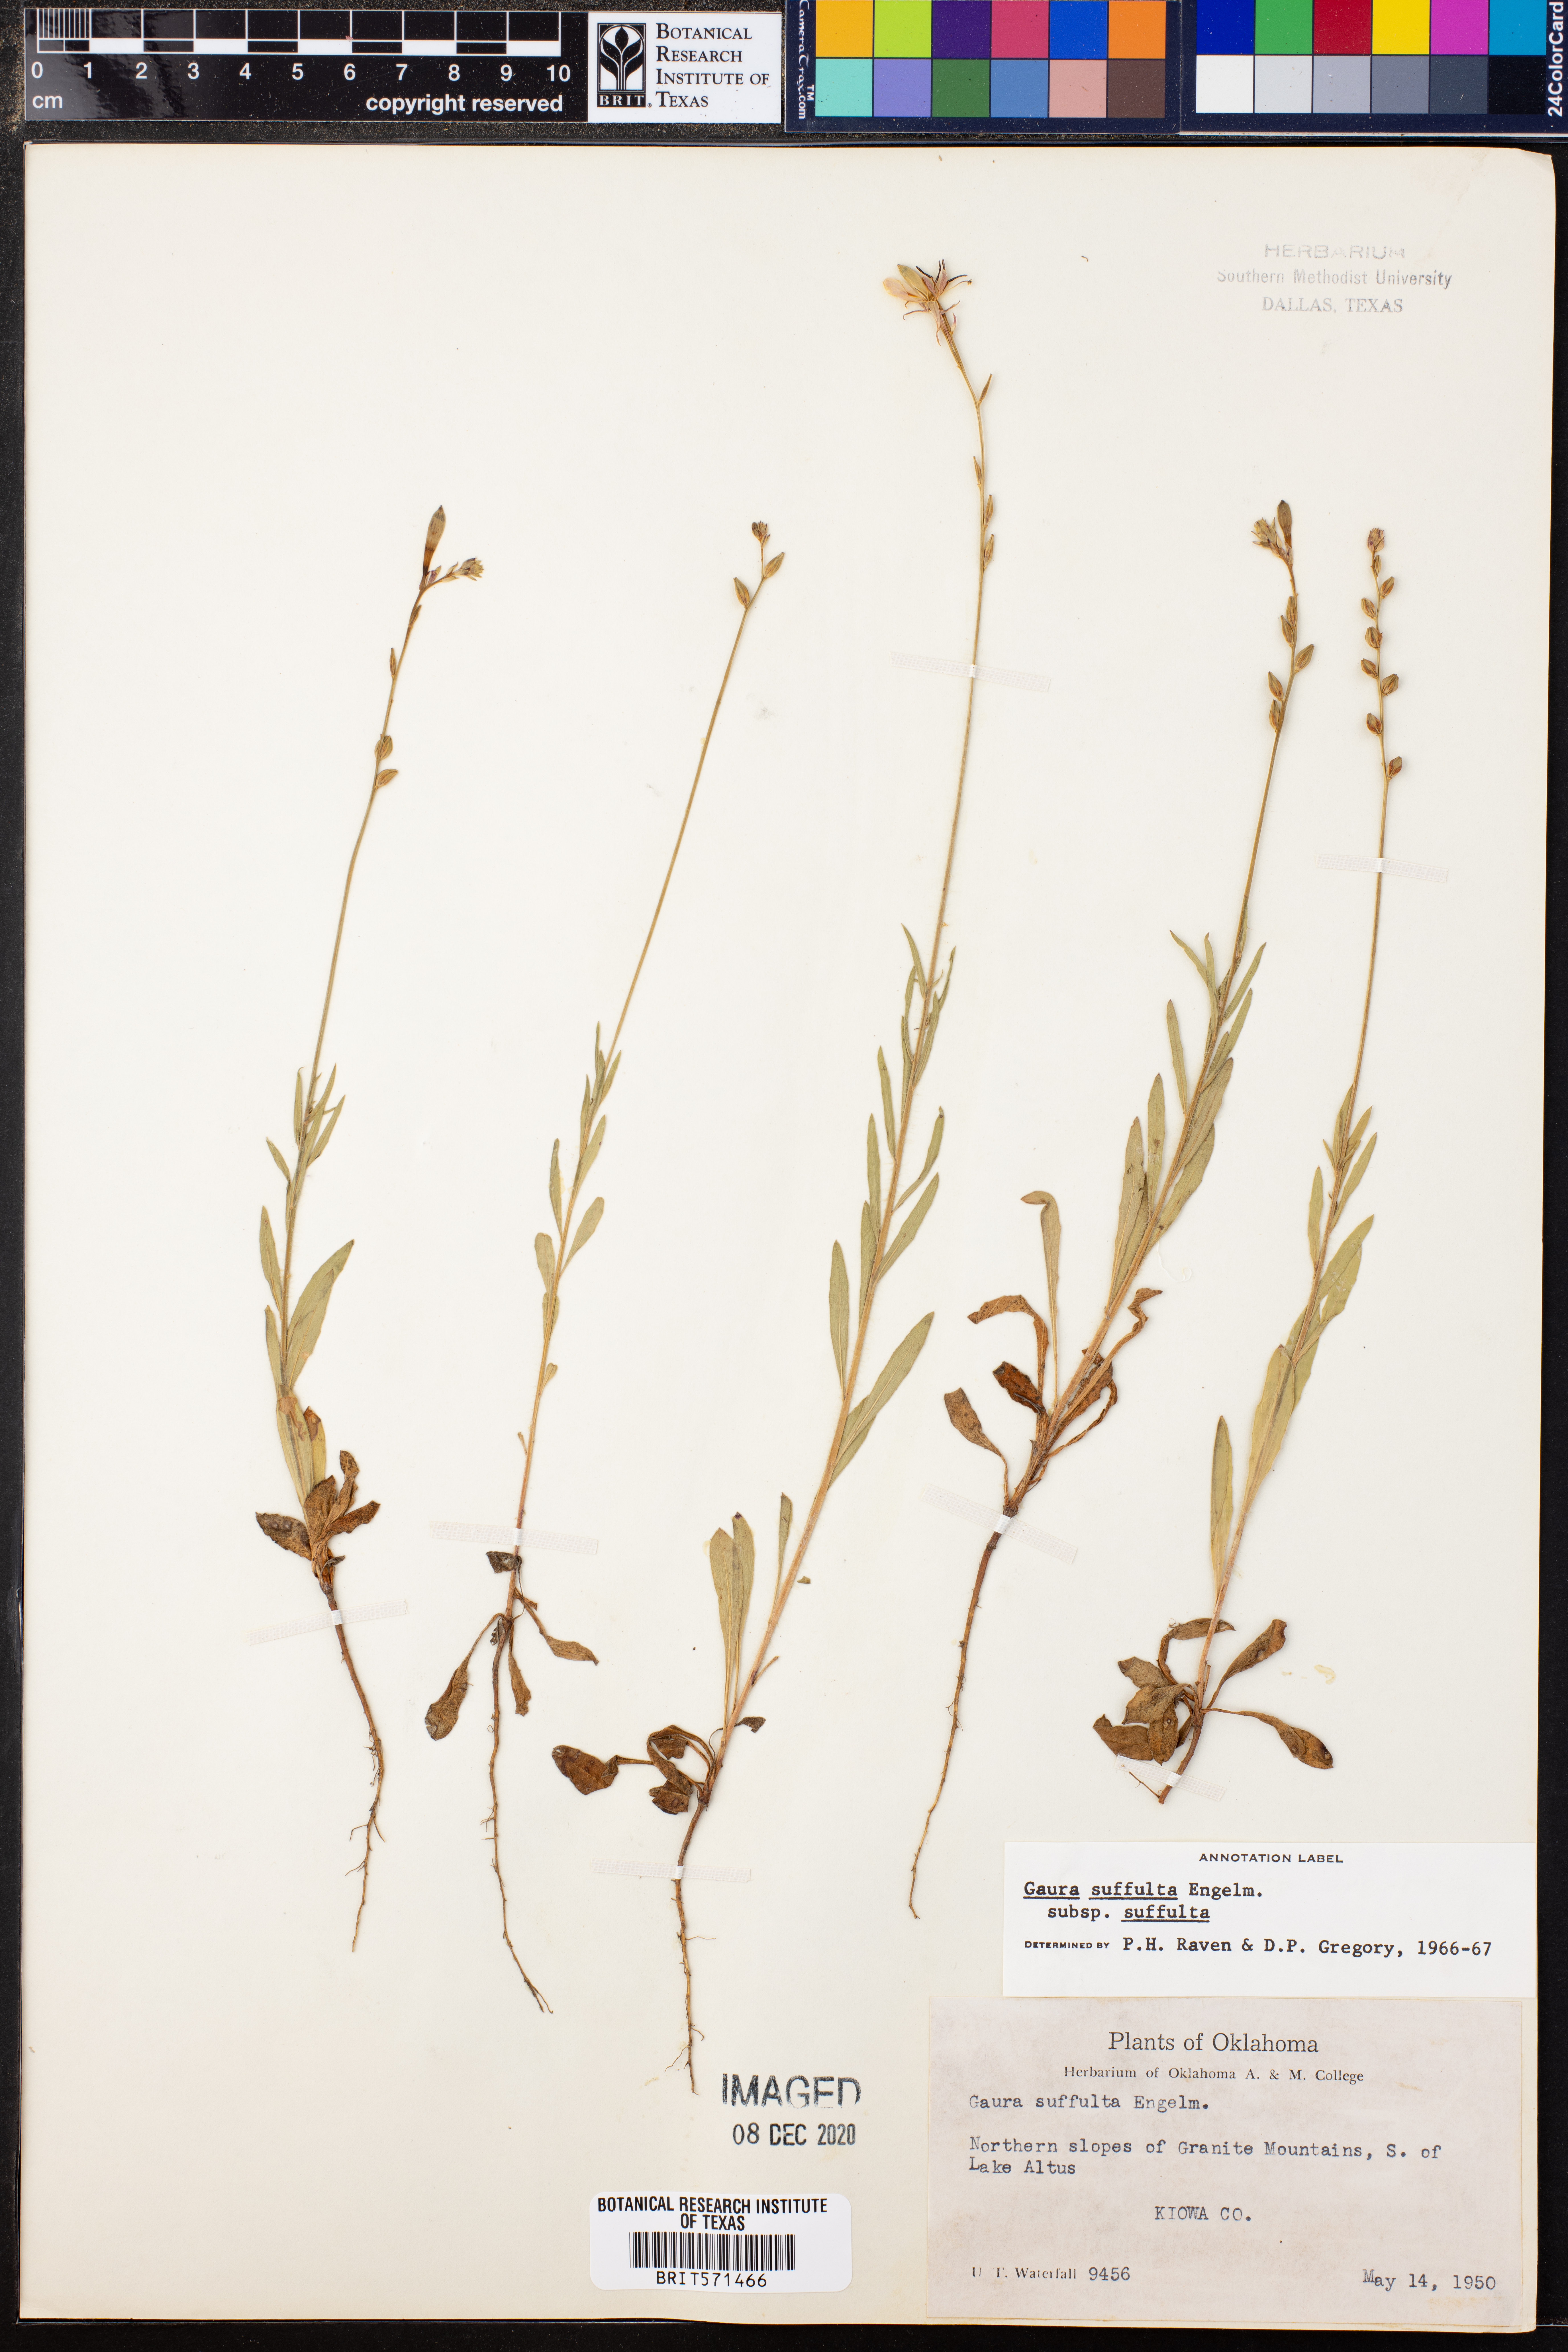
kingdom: Plantae
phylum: Tracheophyta
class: Magnoliopsida
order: Myrtales
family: Onagraceae
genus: Oenothera
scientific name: Oenothera suffulta
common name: Kisses
